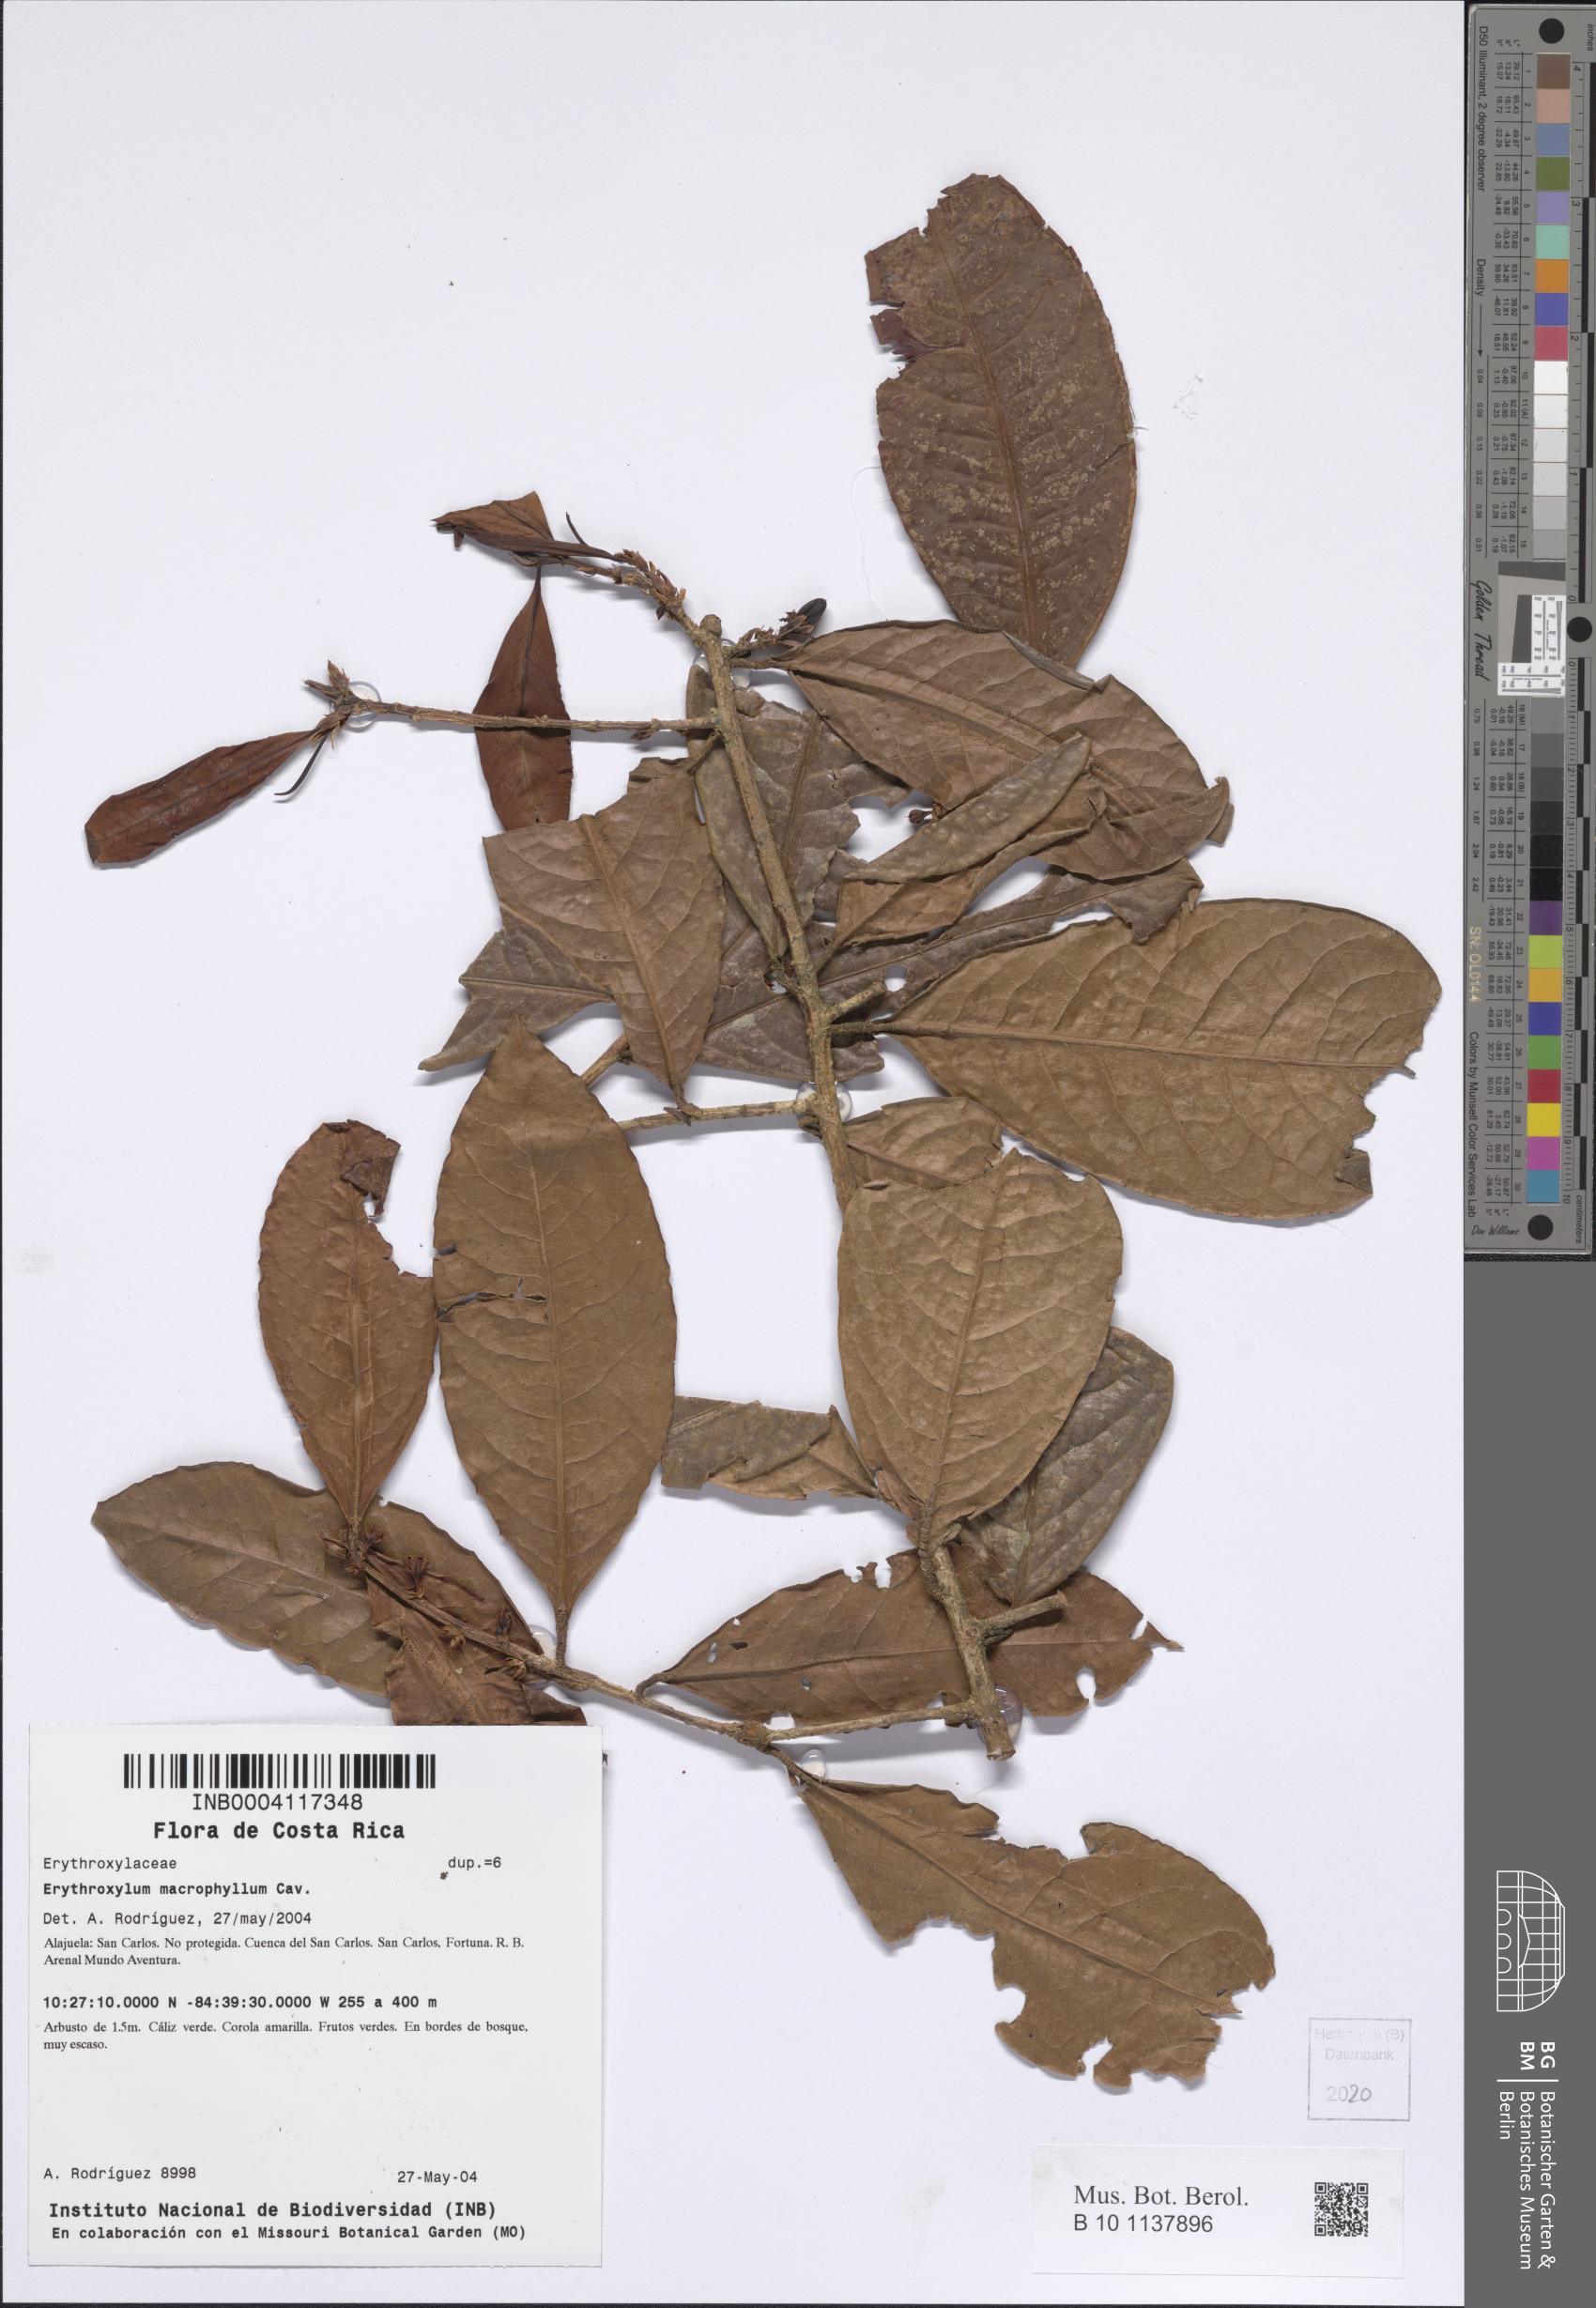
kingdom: Plantae
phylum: Tracheophyta
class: Magnoliopsida
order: Malpighiales
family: Erythroxylaceae
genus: Erythroxylum
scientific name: Erythroxylum macrophyllum
